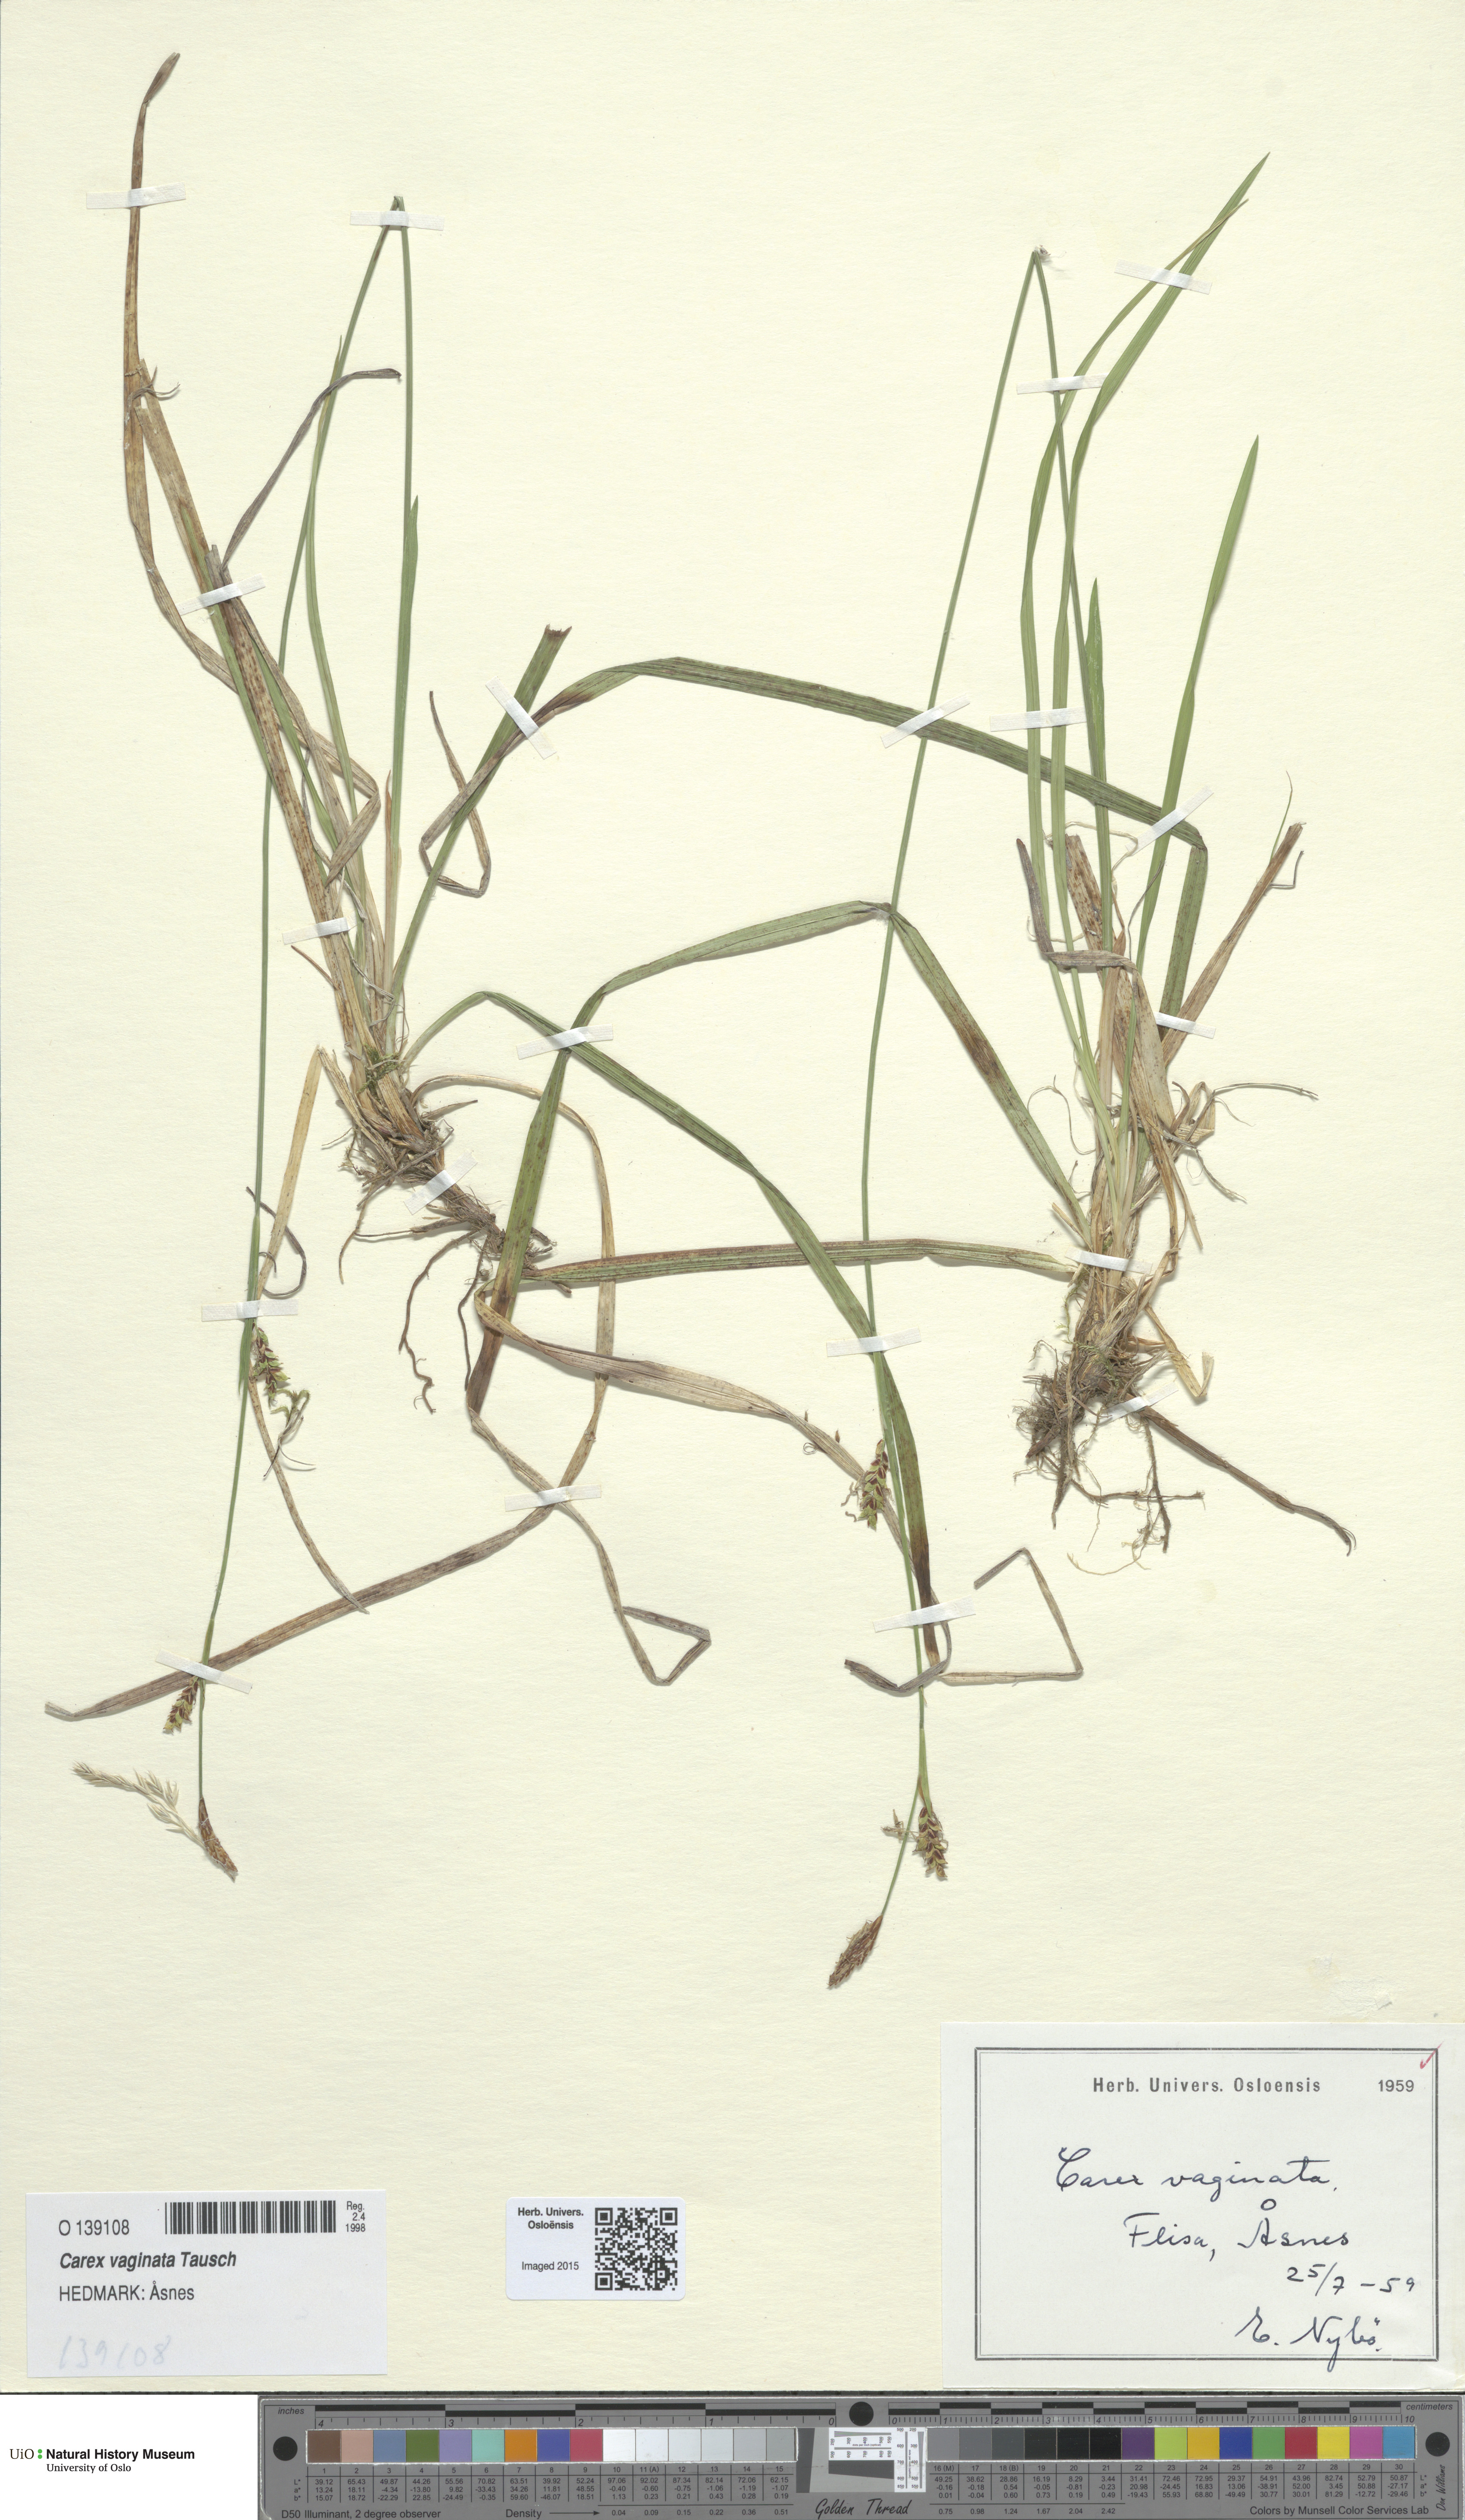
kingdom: Plantae
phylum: Tracheophyta
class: Liliopsida
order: Poales
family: Cyperaceae
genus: Carex
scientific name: Carex vaginata
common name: Sheathed sedge
